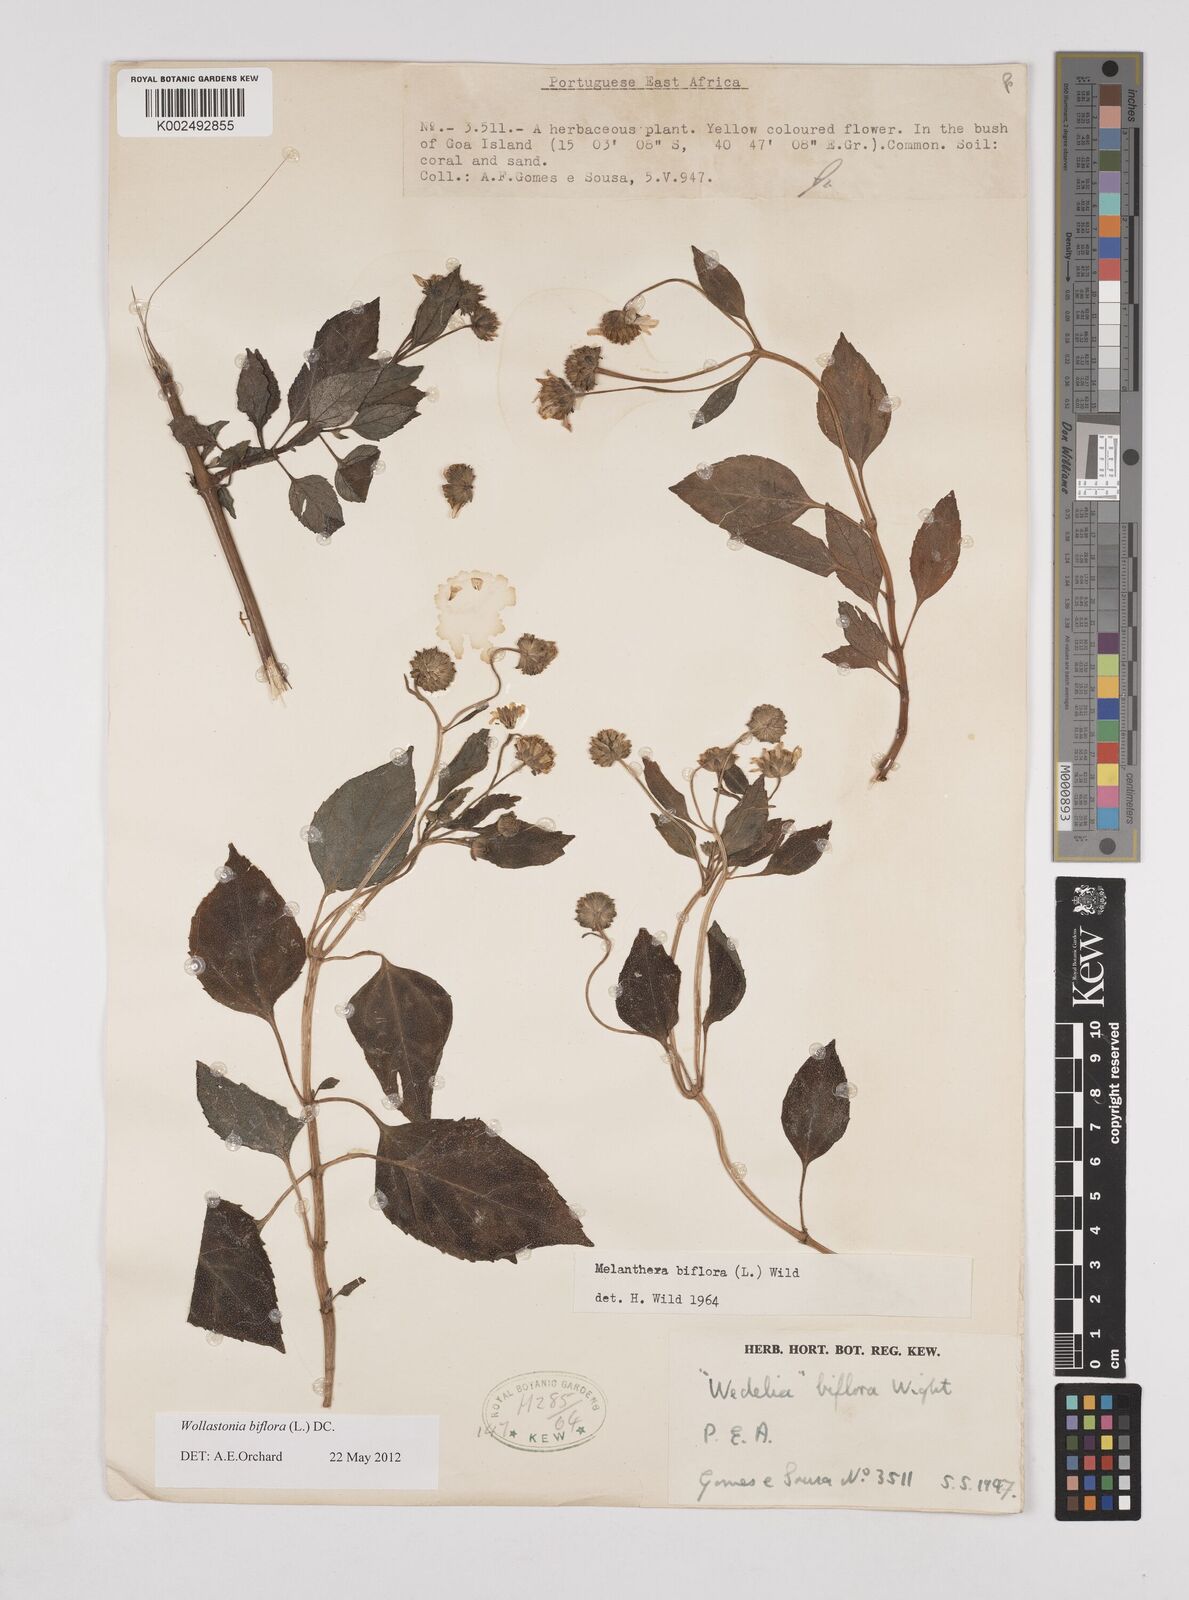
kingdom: Plantae
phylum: Tracheophyta
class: Magnoliopsida
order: Asterales
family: Asteraceae
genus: Wollastonia
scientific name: Wollastonia biflora
